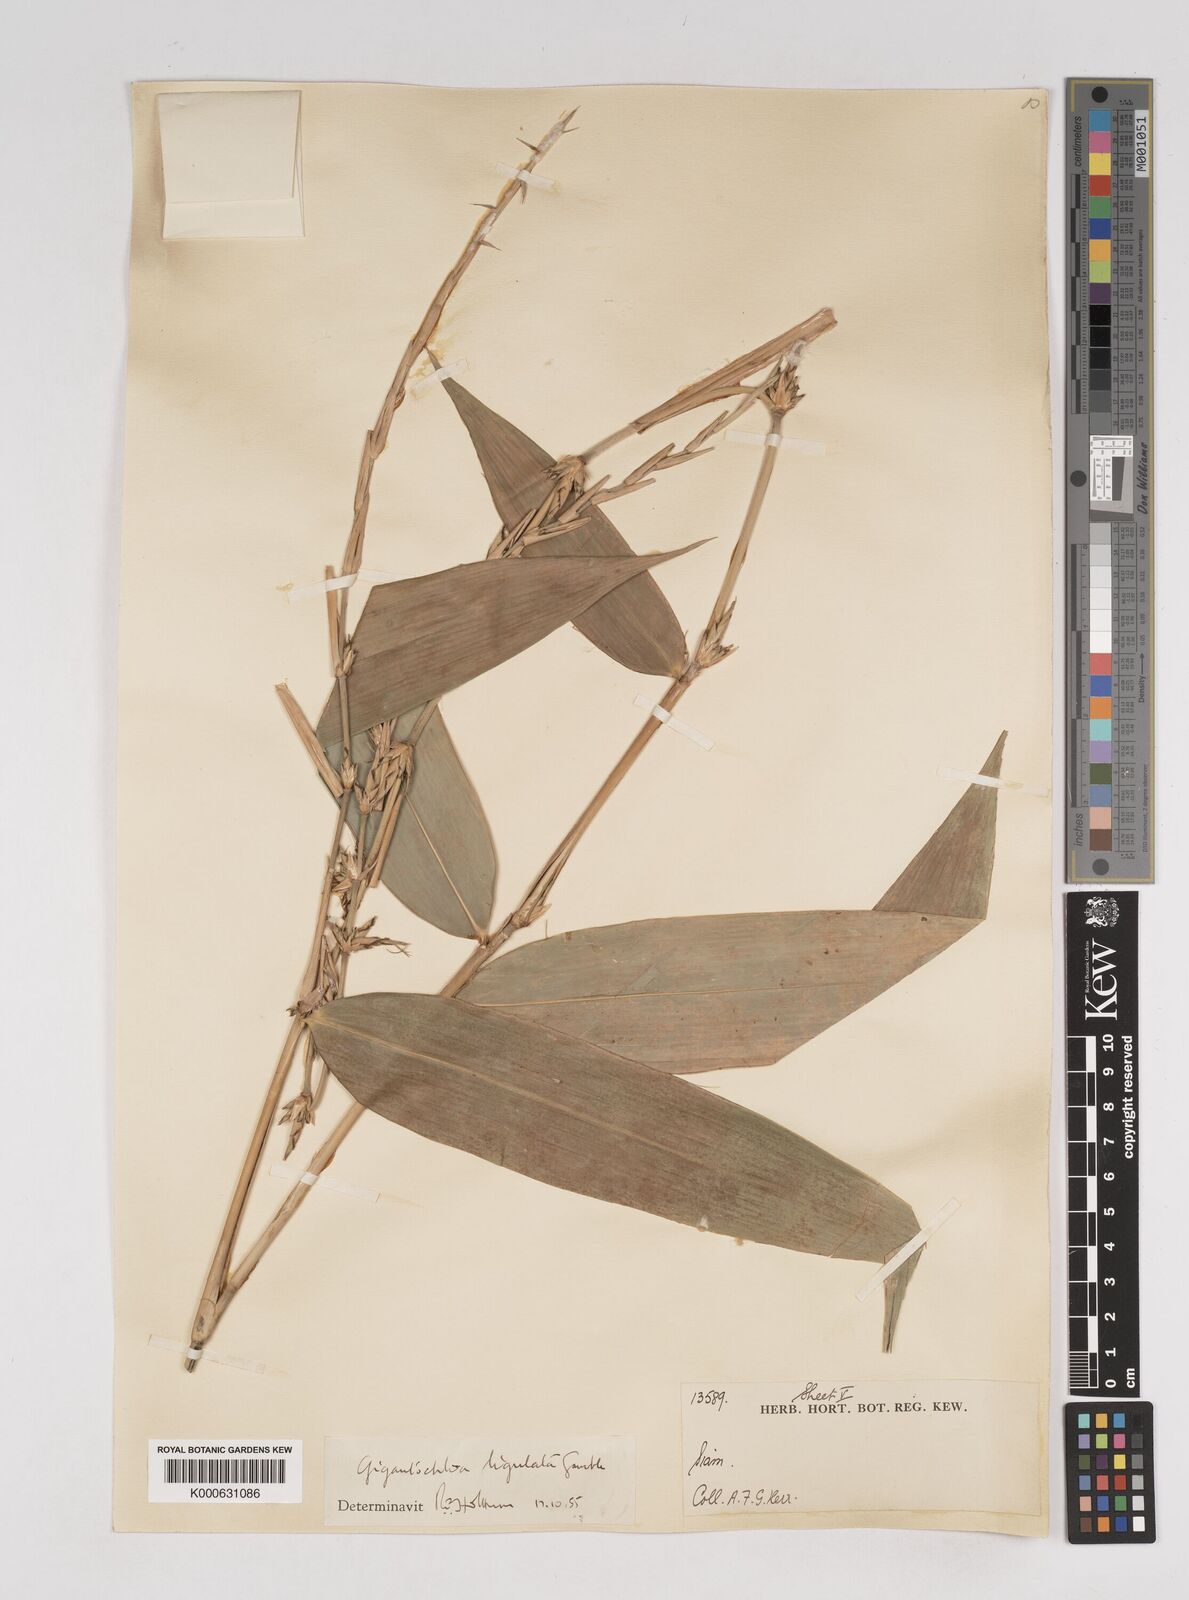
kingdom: Plantae
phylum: Tracheophyta
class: Liliopsida
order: Poales
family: Poaceae
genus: Gigantochloa
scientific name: Gigantochloa ligulata
